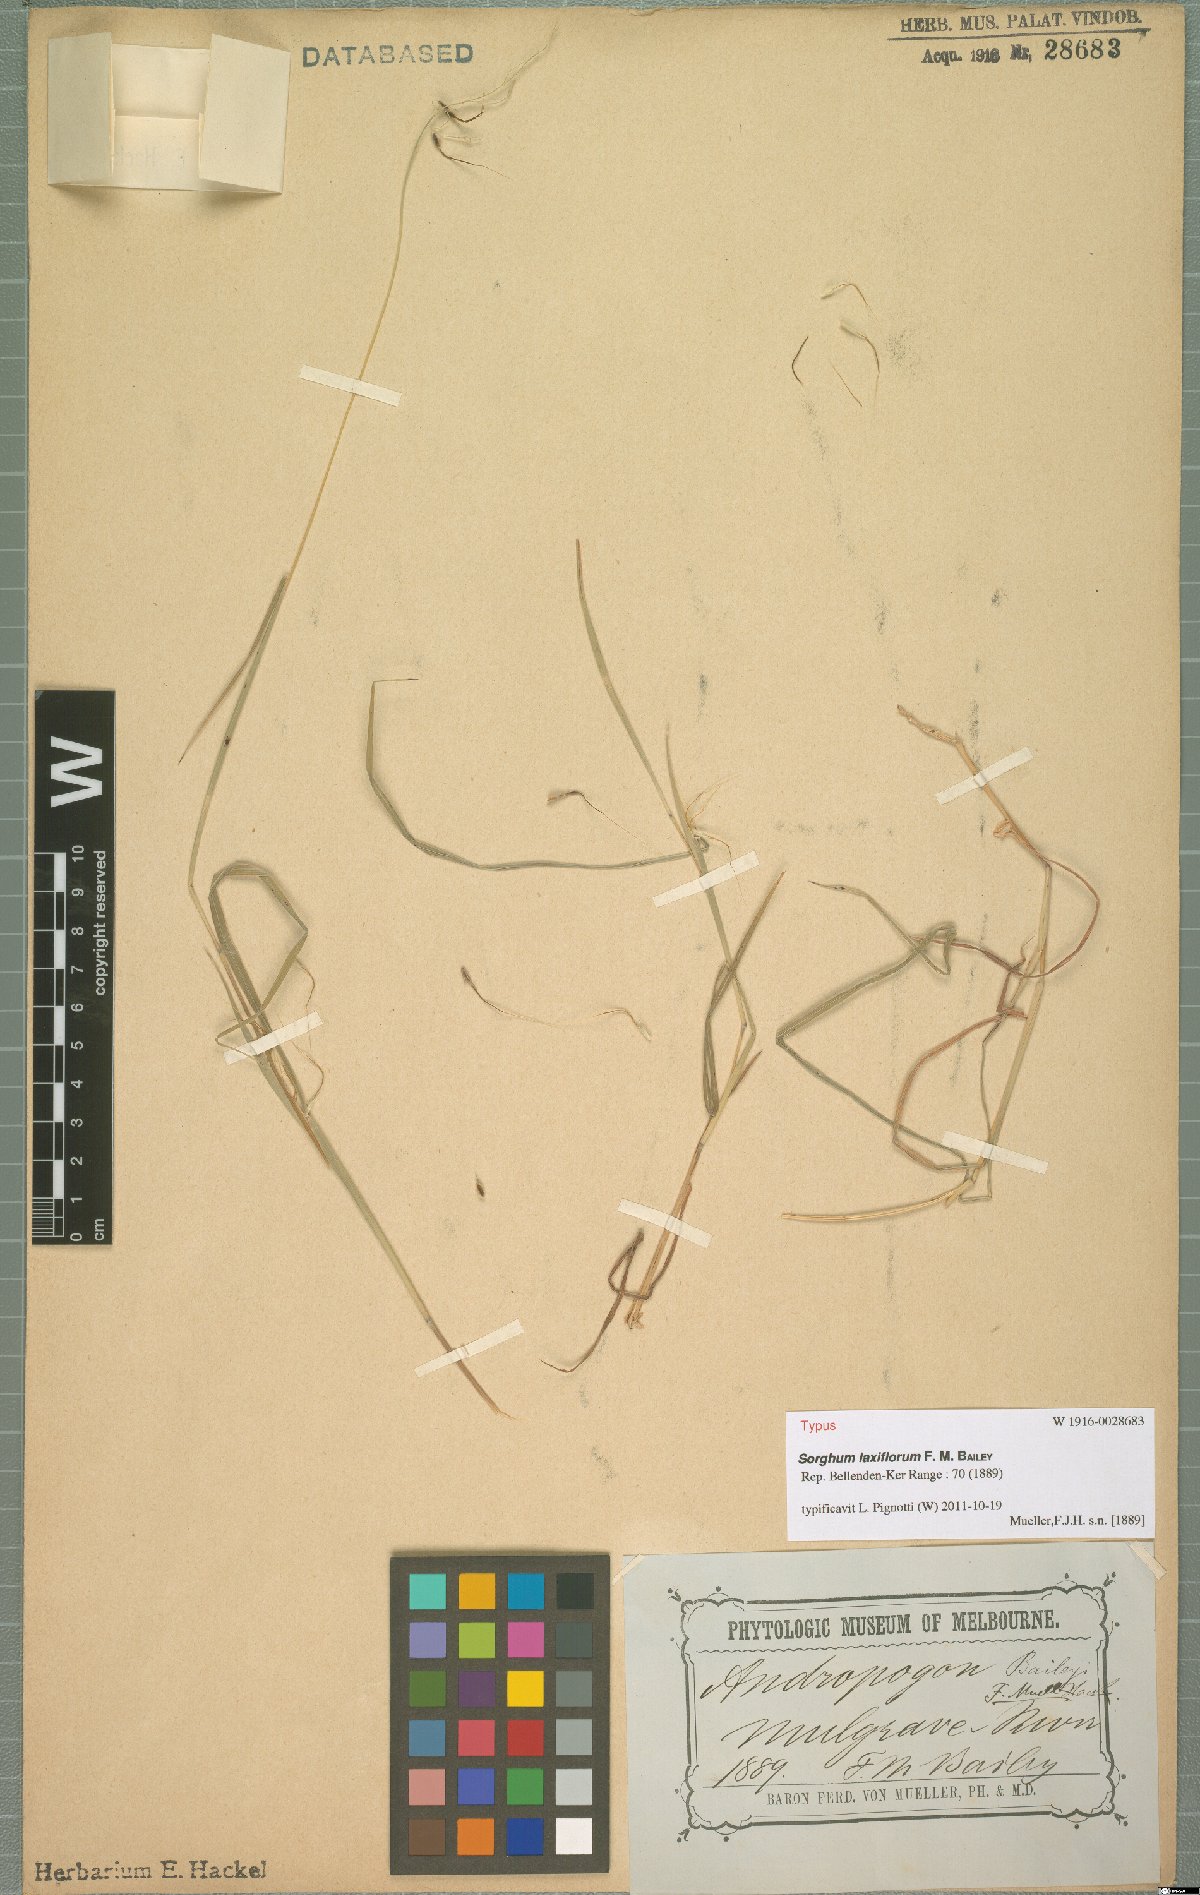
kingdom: Plantae
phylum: Tracheophyta
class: Liliopsida
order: Poales
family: Poaceae
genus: Sorghum
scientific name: Sorghum laxiflorum
